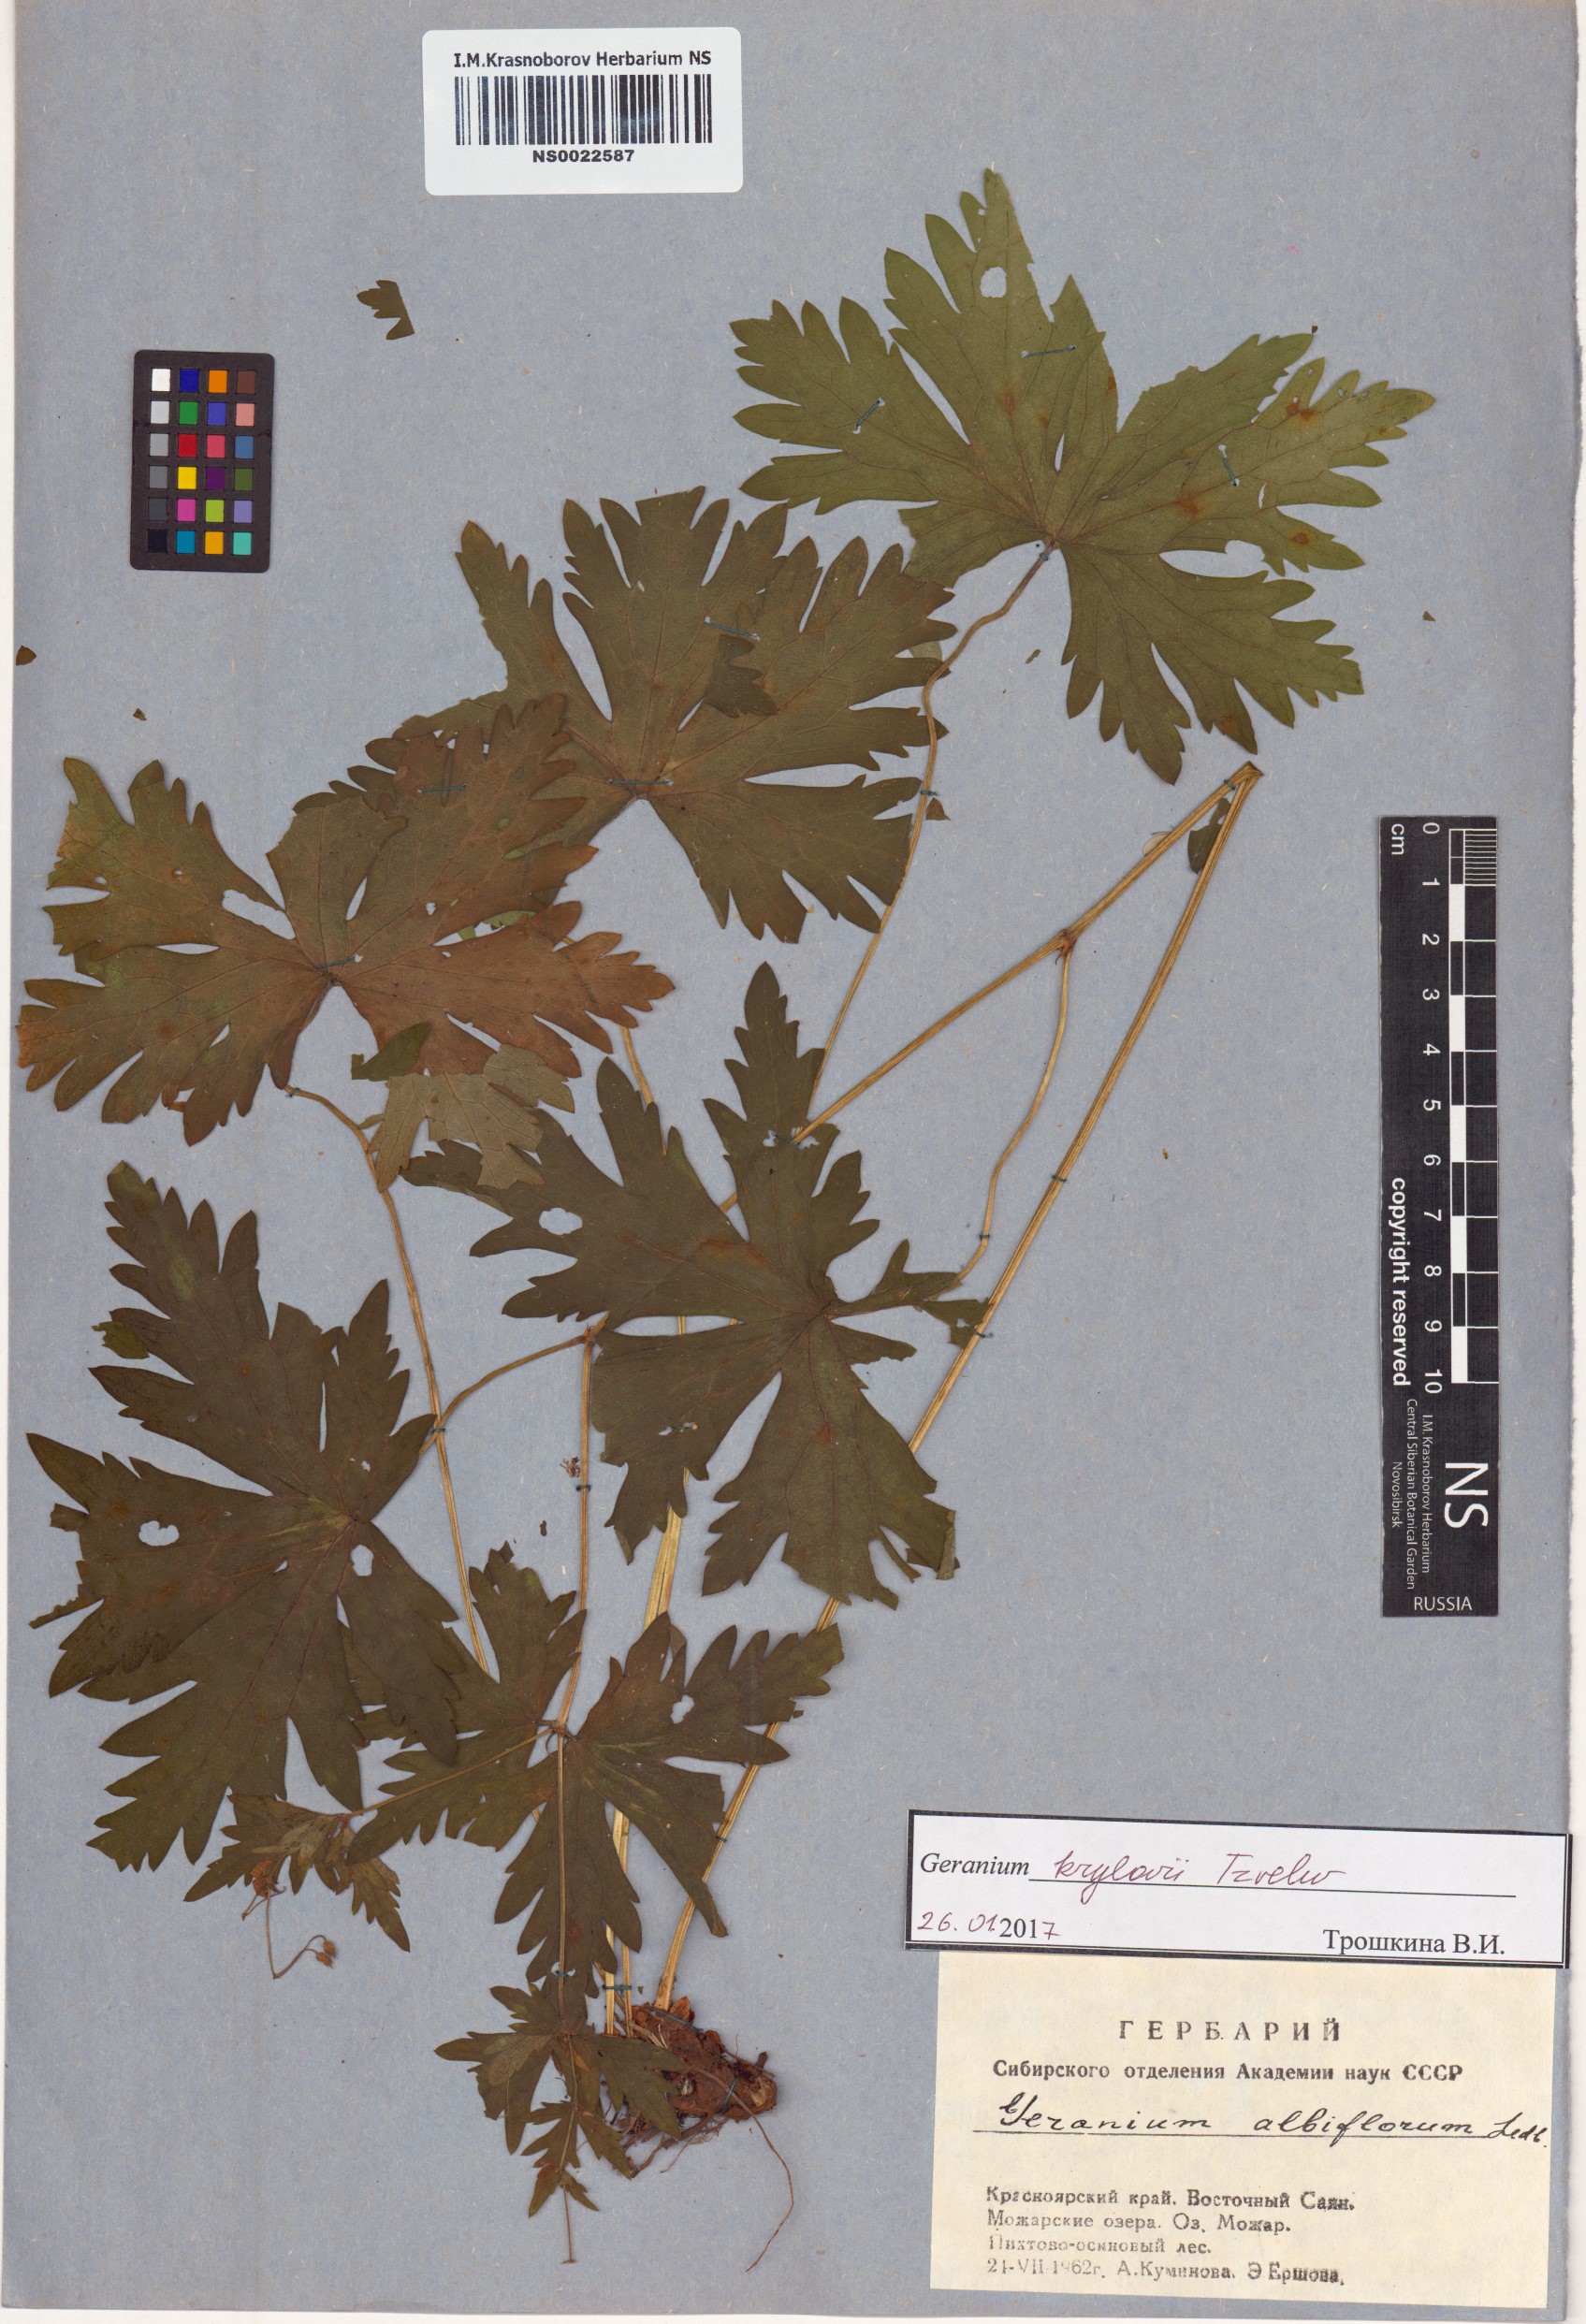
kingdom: Plantae
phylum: Tracheophyta
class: Magnoliopsida
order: Geraniales
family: Geraniaceae
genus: Geranium
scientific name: Geranium sylvaticum
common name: Wood crane's-bill
